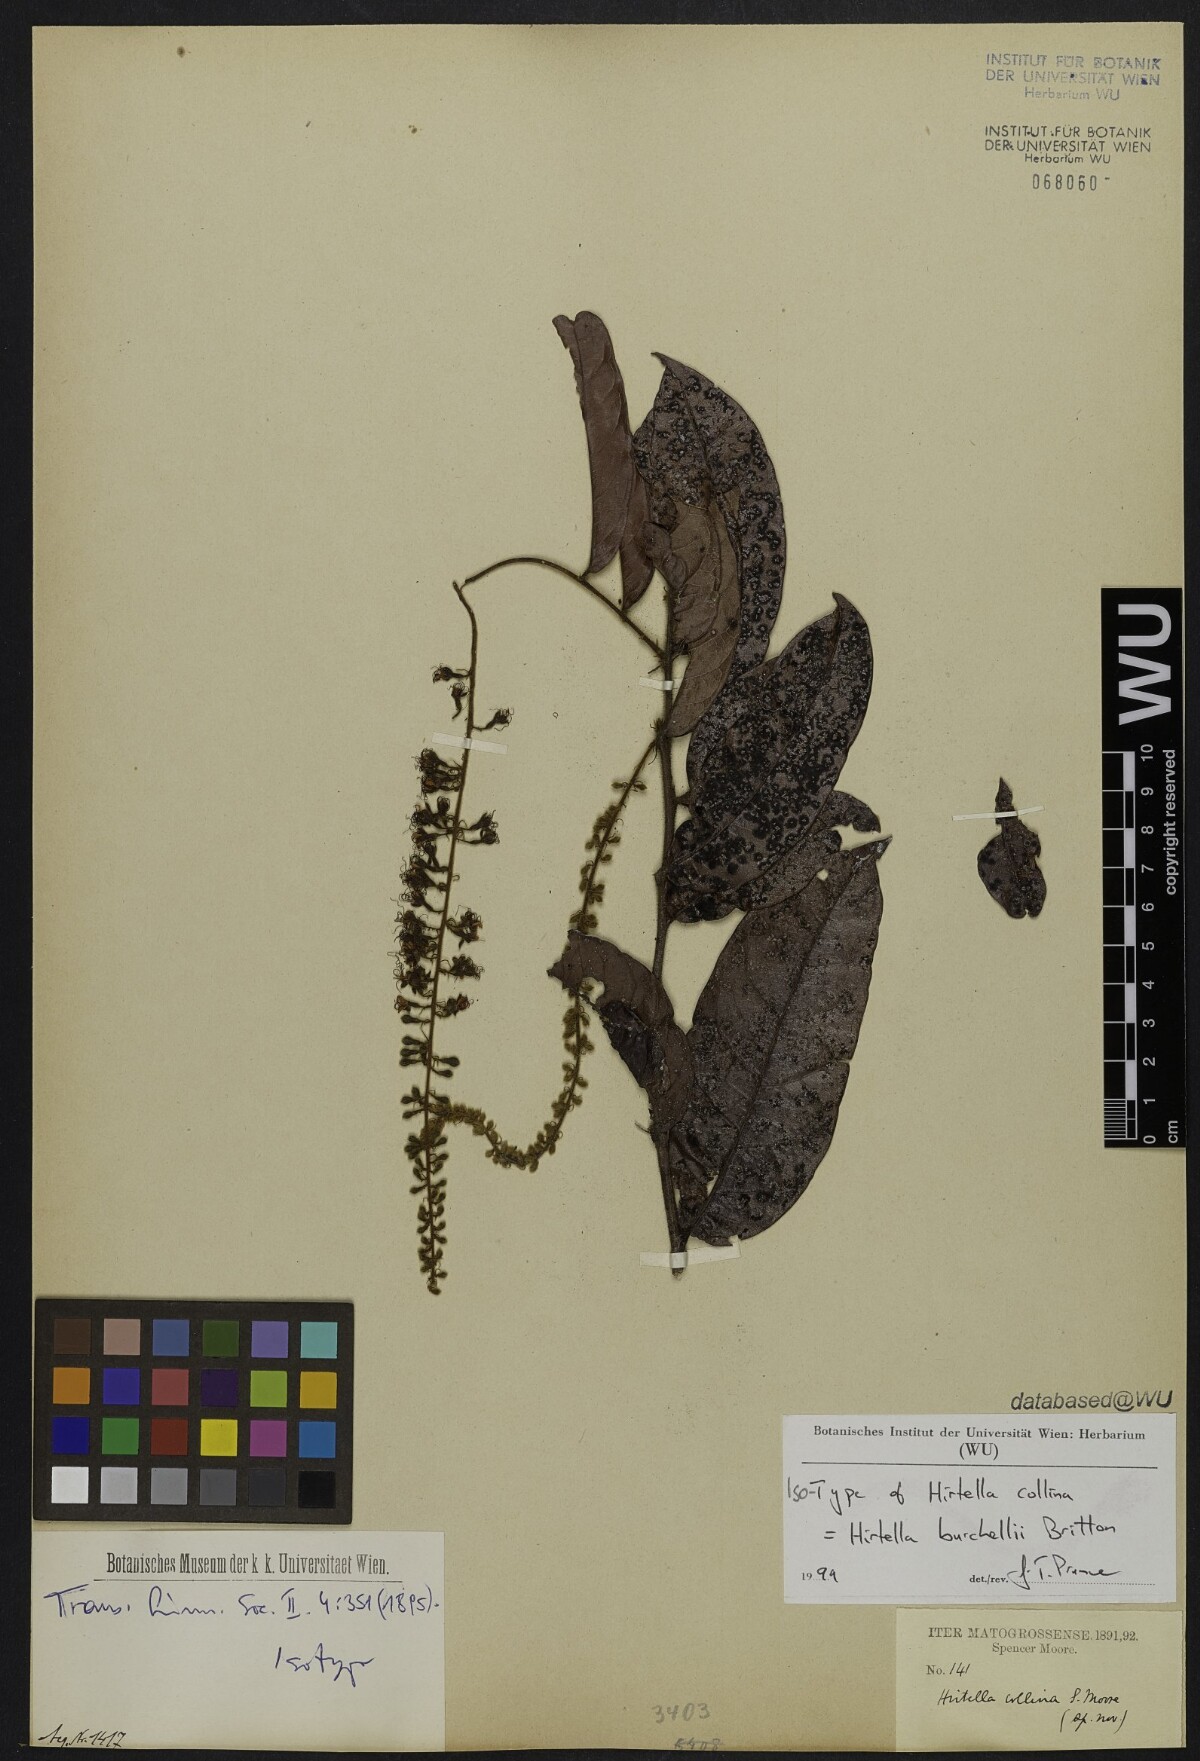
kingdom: Plantae
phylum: Tracheophyta
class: Magnoliopsida
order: Malpighiales
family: Chrysobalanaceae
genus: Hirtella
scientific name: Hirtella burchellii
